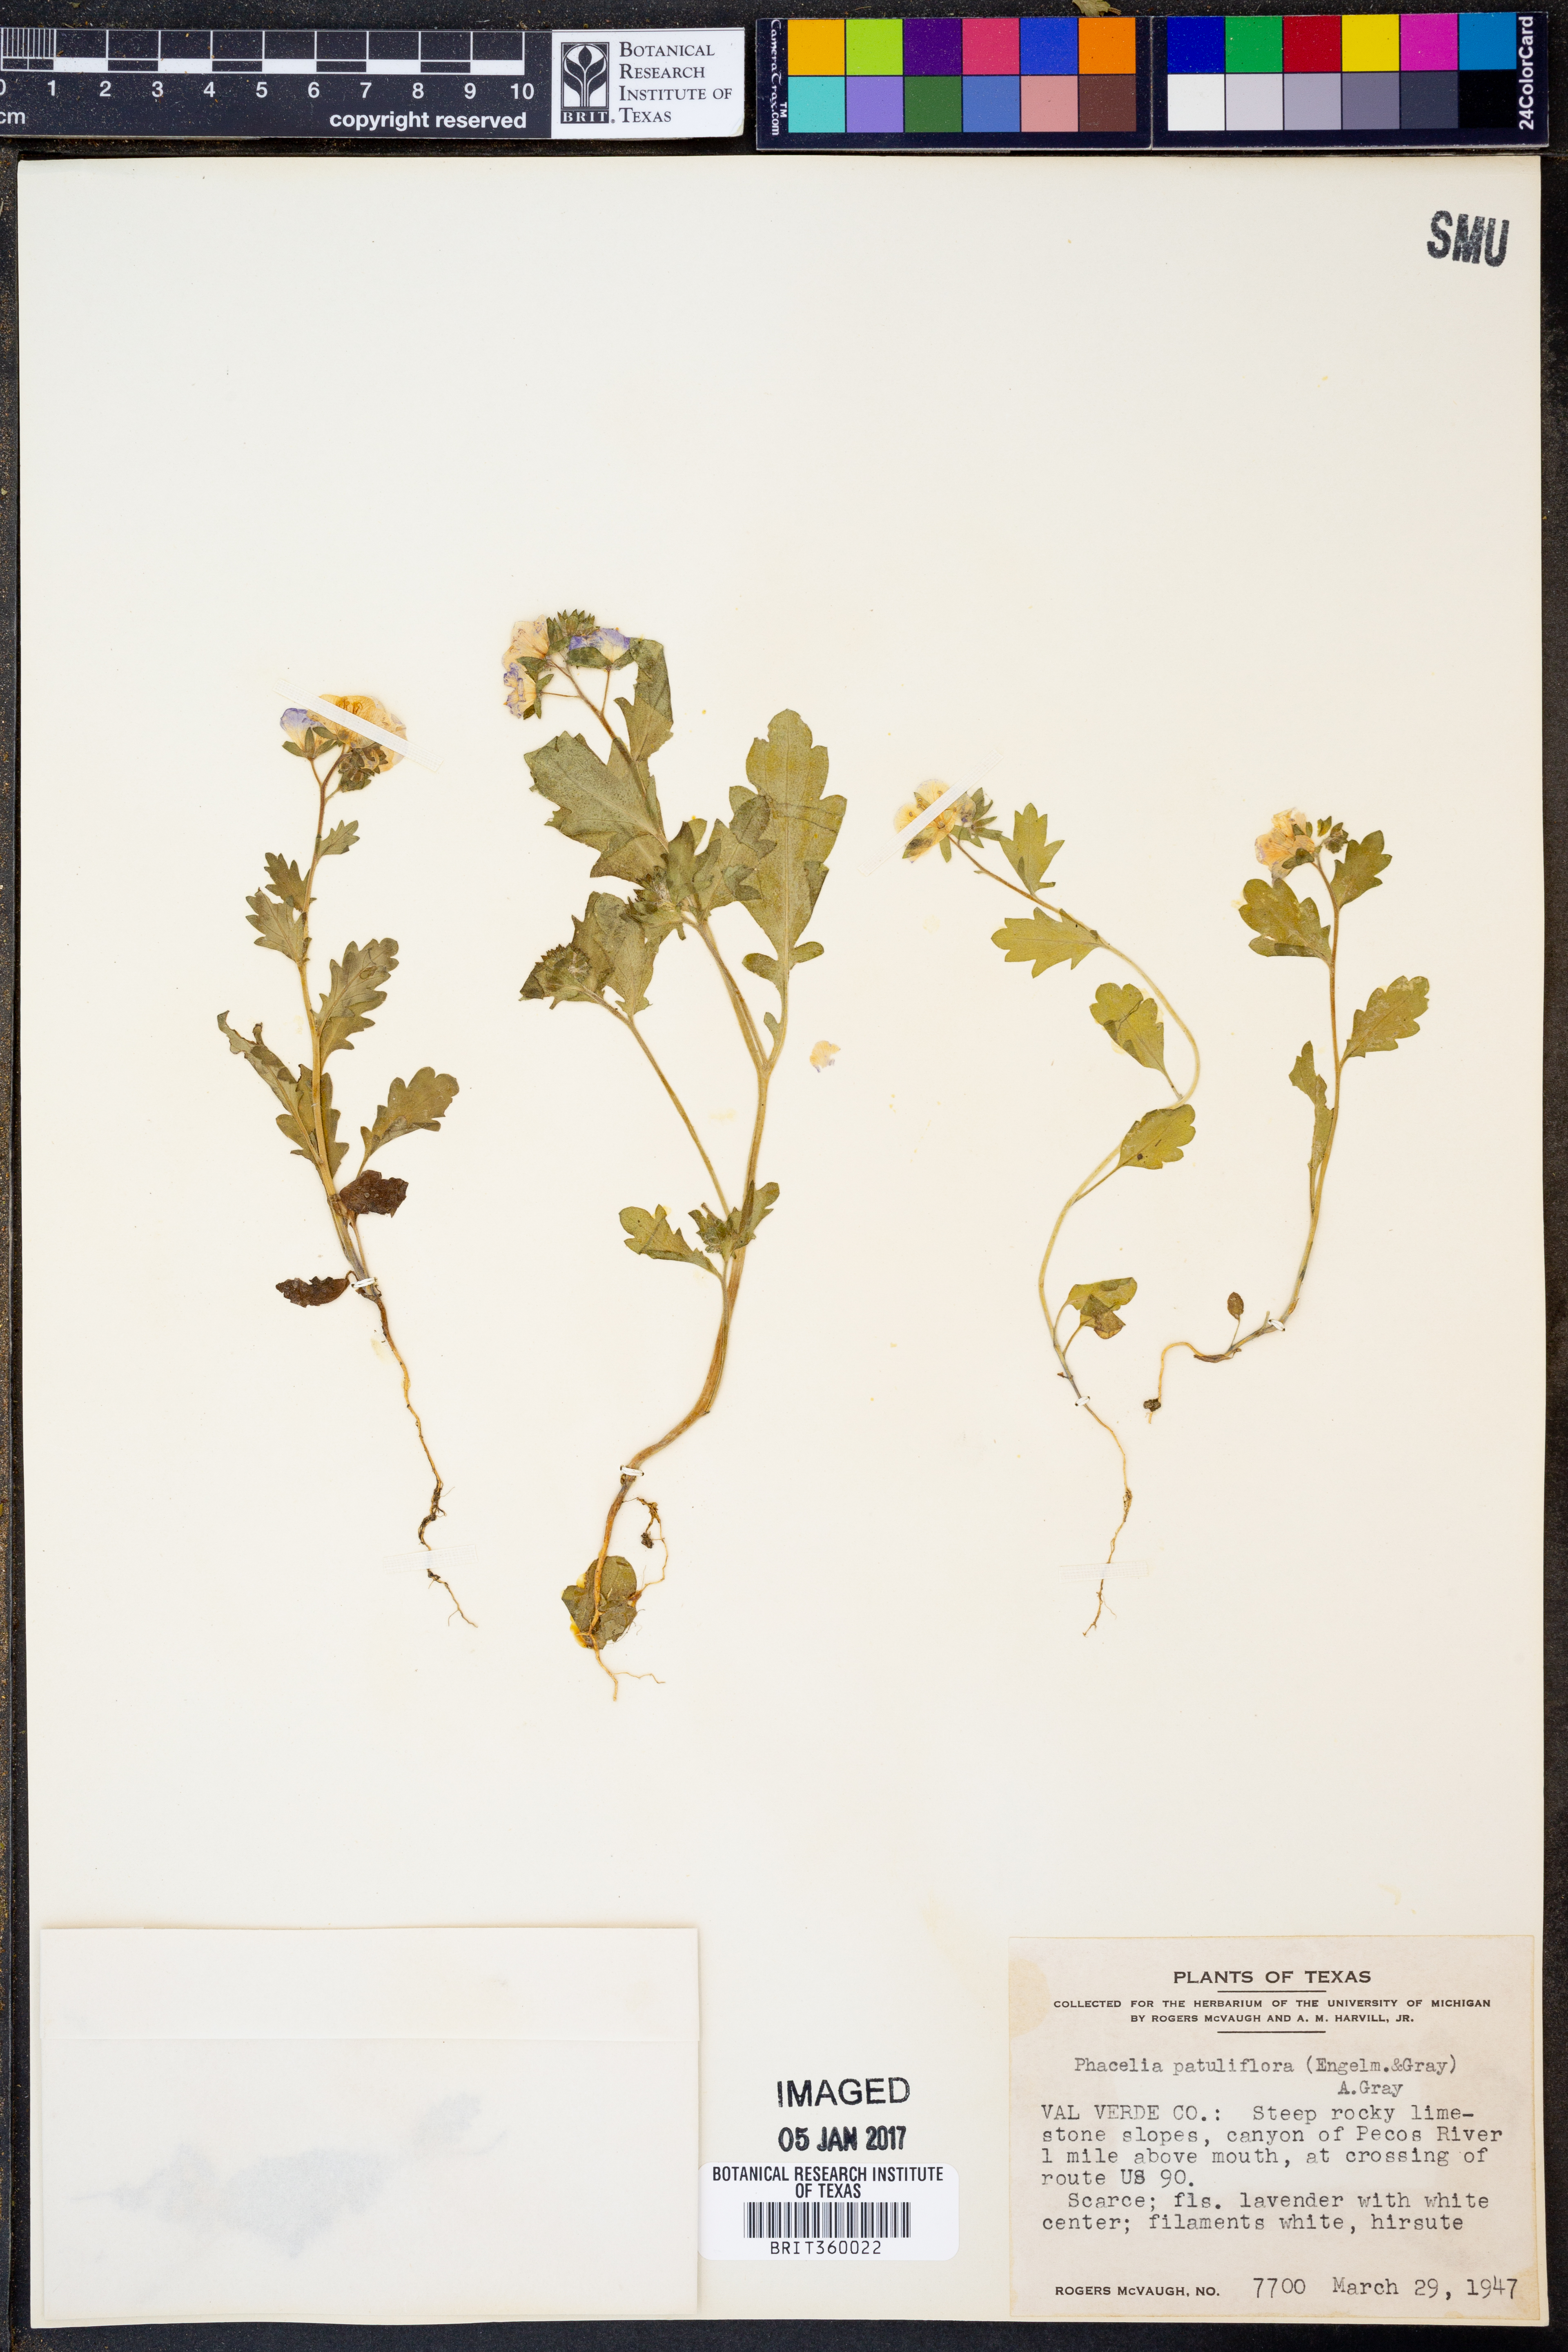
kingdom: Plantae
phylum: Tracheophyta
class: Magnoliopsida
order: Boraginales
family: Hydrophyllaceae
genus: Phacelia
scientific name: Phacelia patuliflora
